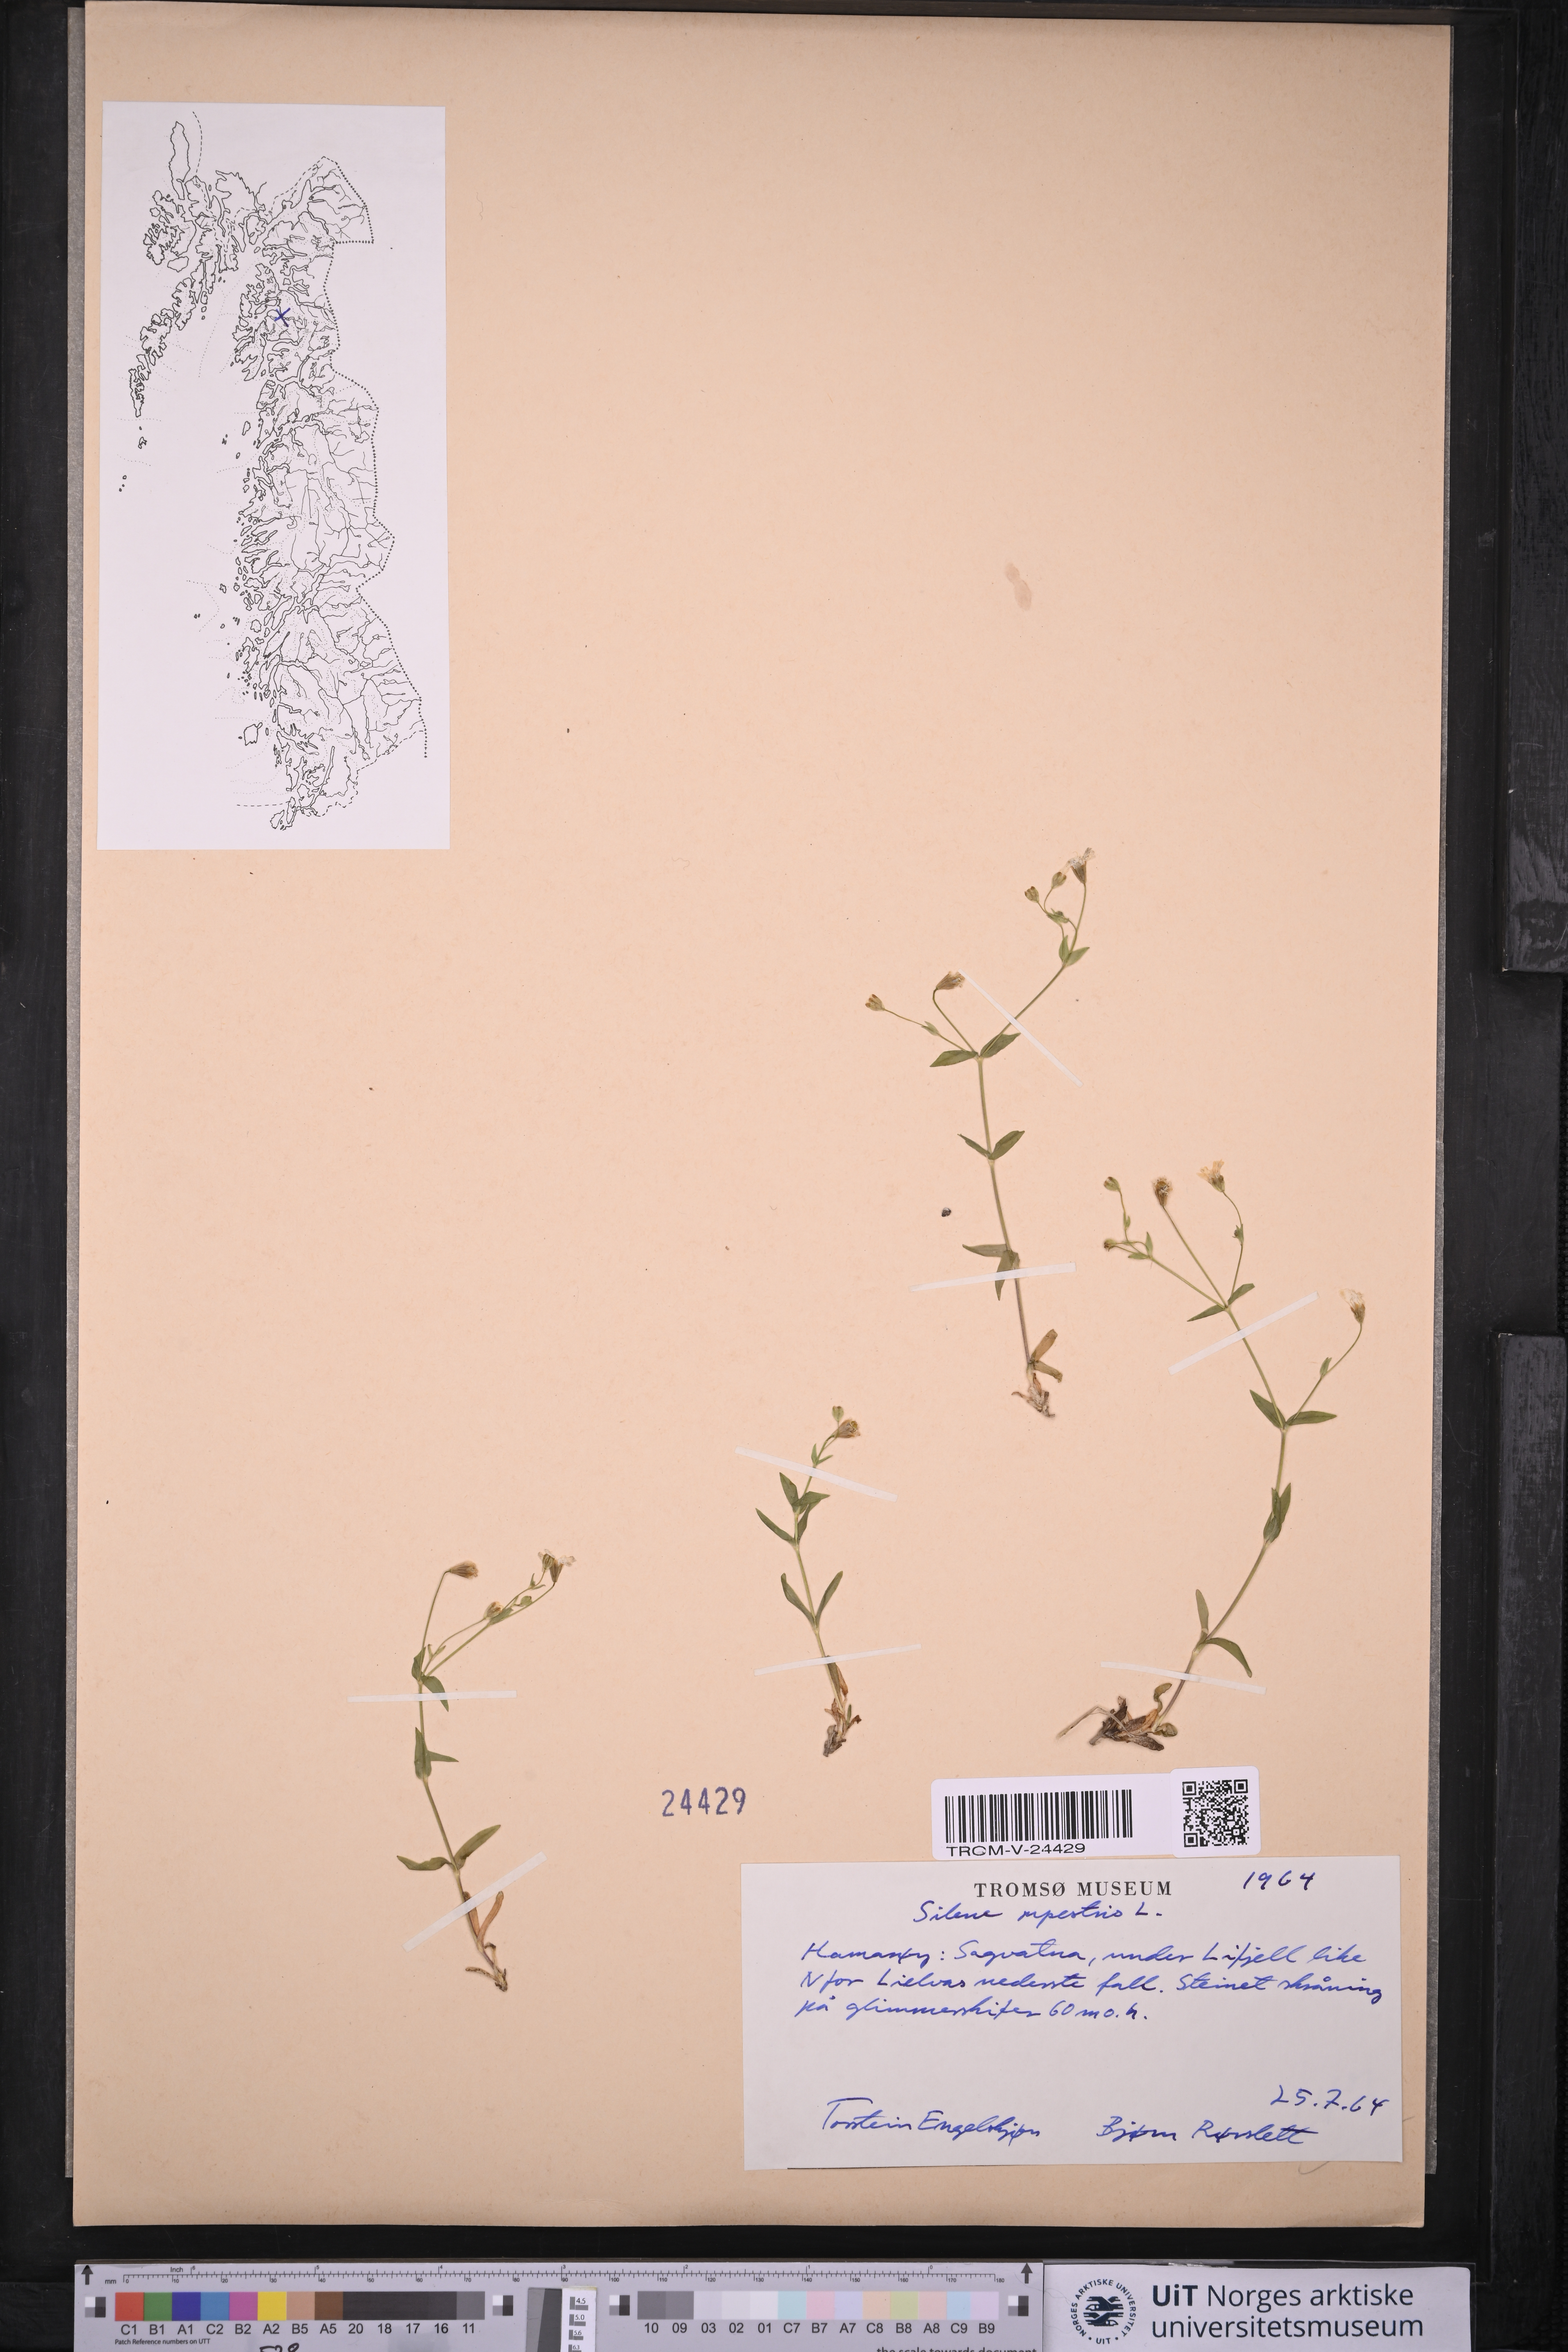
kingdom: Plantae
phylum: Tracheophyta
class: Magnoliopsida
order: Caryophyllales
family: Caryophyllaceae
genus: Atocion
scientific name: Atocion rupestre
